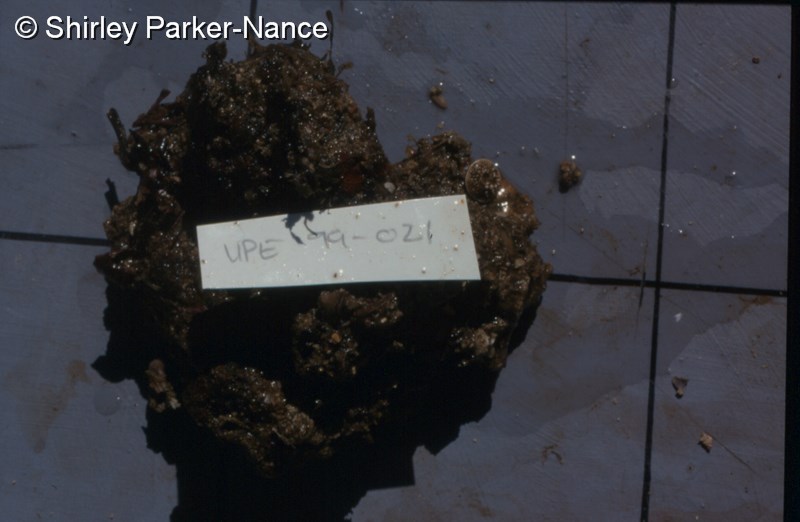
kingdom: Animalia
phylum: Chordata
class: Ascidiacea
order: Stolidobranchia
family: Pyuridae
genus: Pyura
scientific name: Pyura
